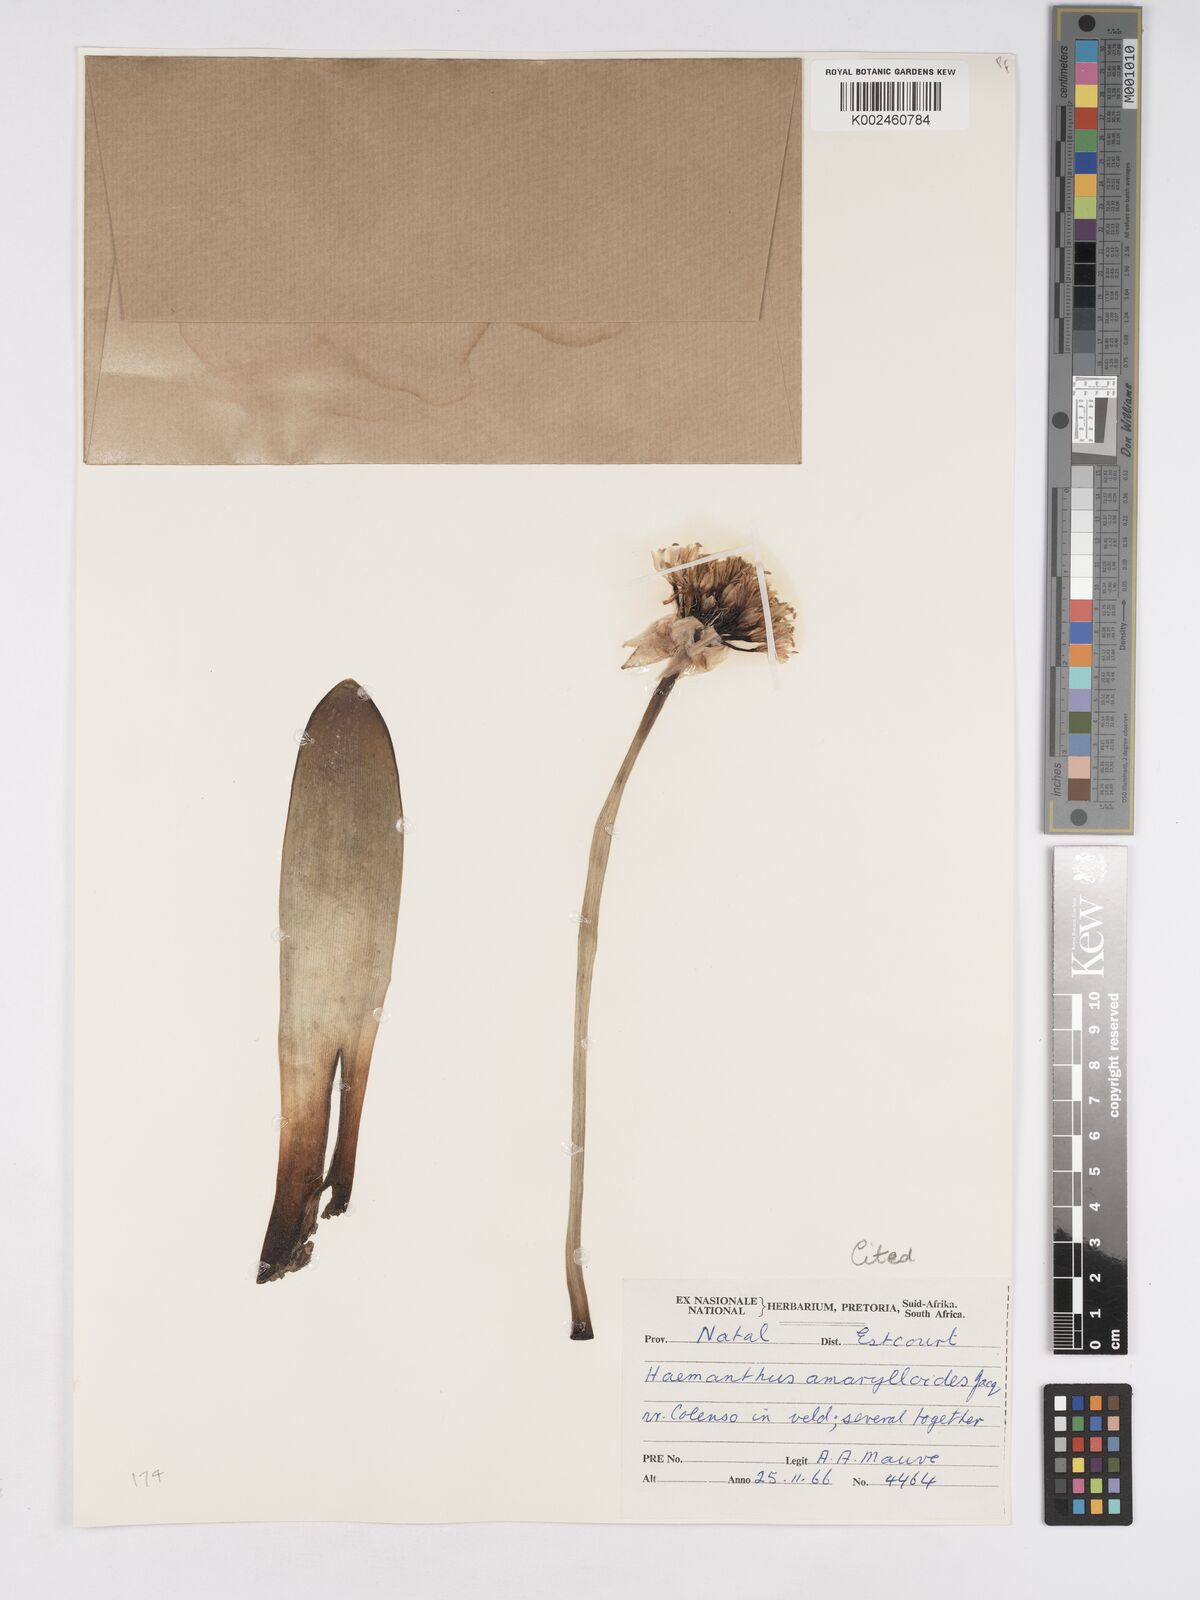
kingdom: Plantae
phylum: Tracheophyta
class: Liliopsida
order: Asparagales
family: Amaryllidaceae
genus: Haemanthus
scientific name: Haemanthus montanus
